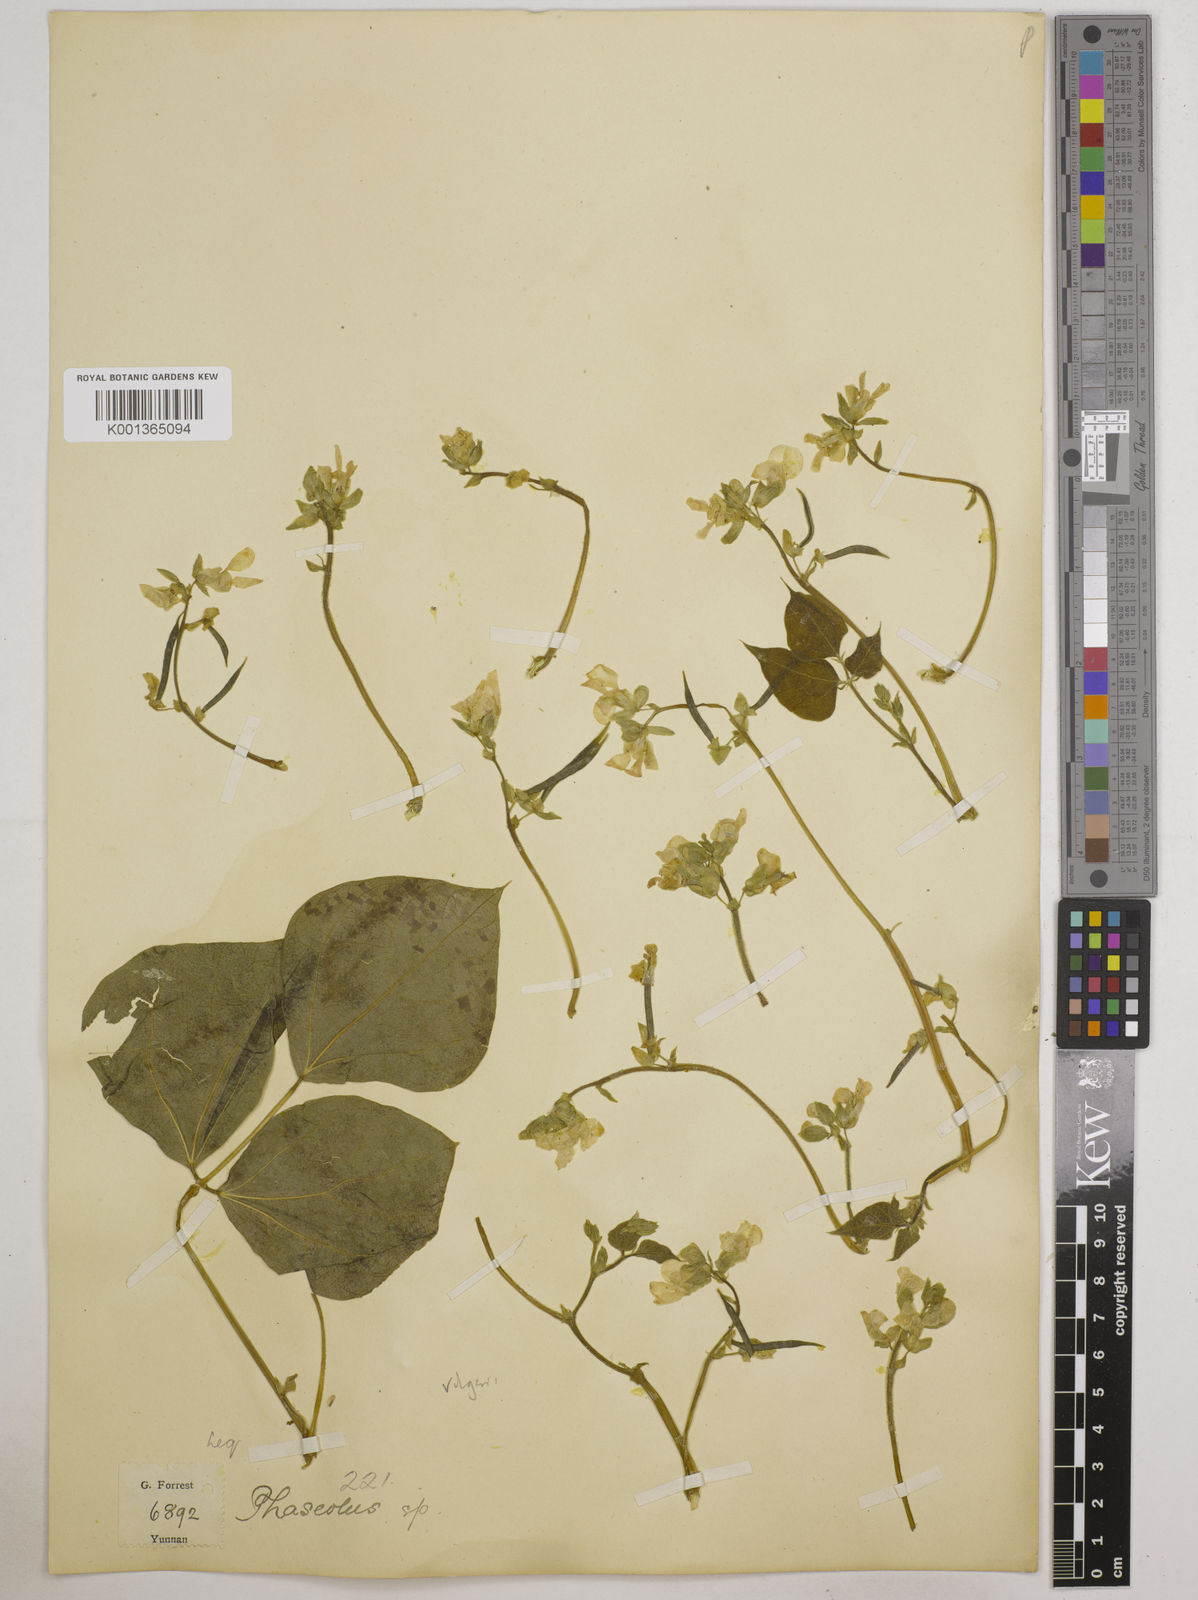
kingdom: Plantae
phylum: Tracheophyta
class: Magnoliopsida
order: Fabales
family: Fabaceae
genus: Phaseolus
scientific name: Phaseolus vulgaris
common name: Bean
